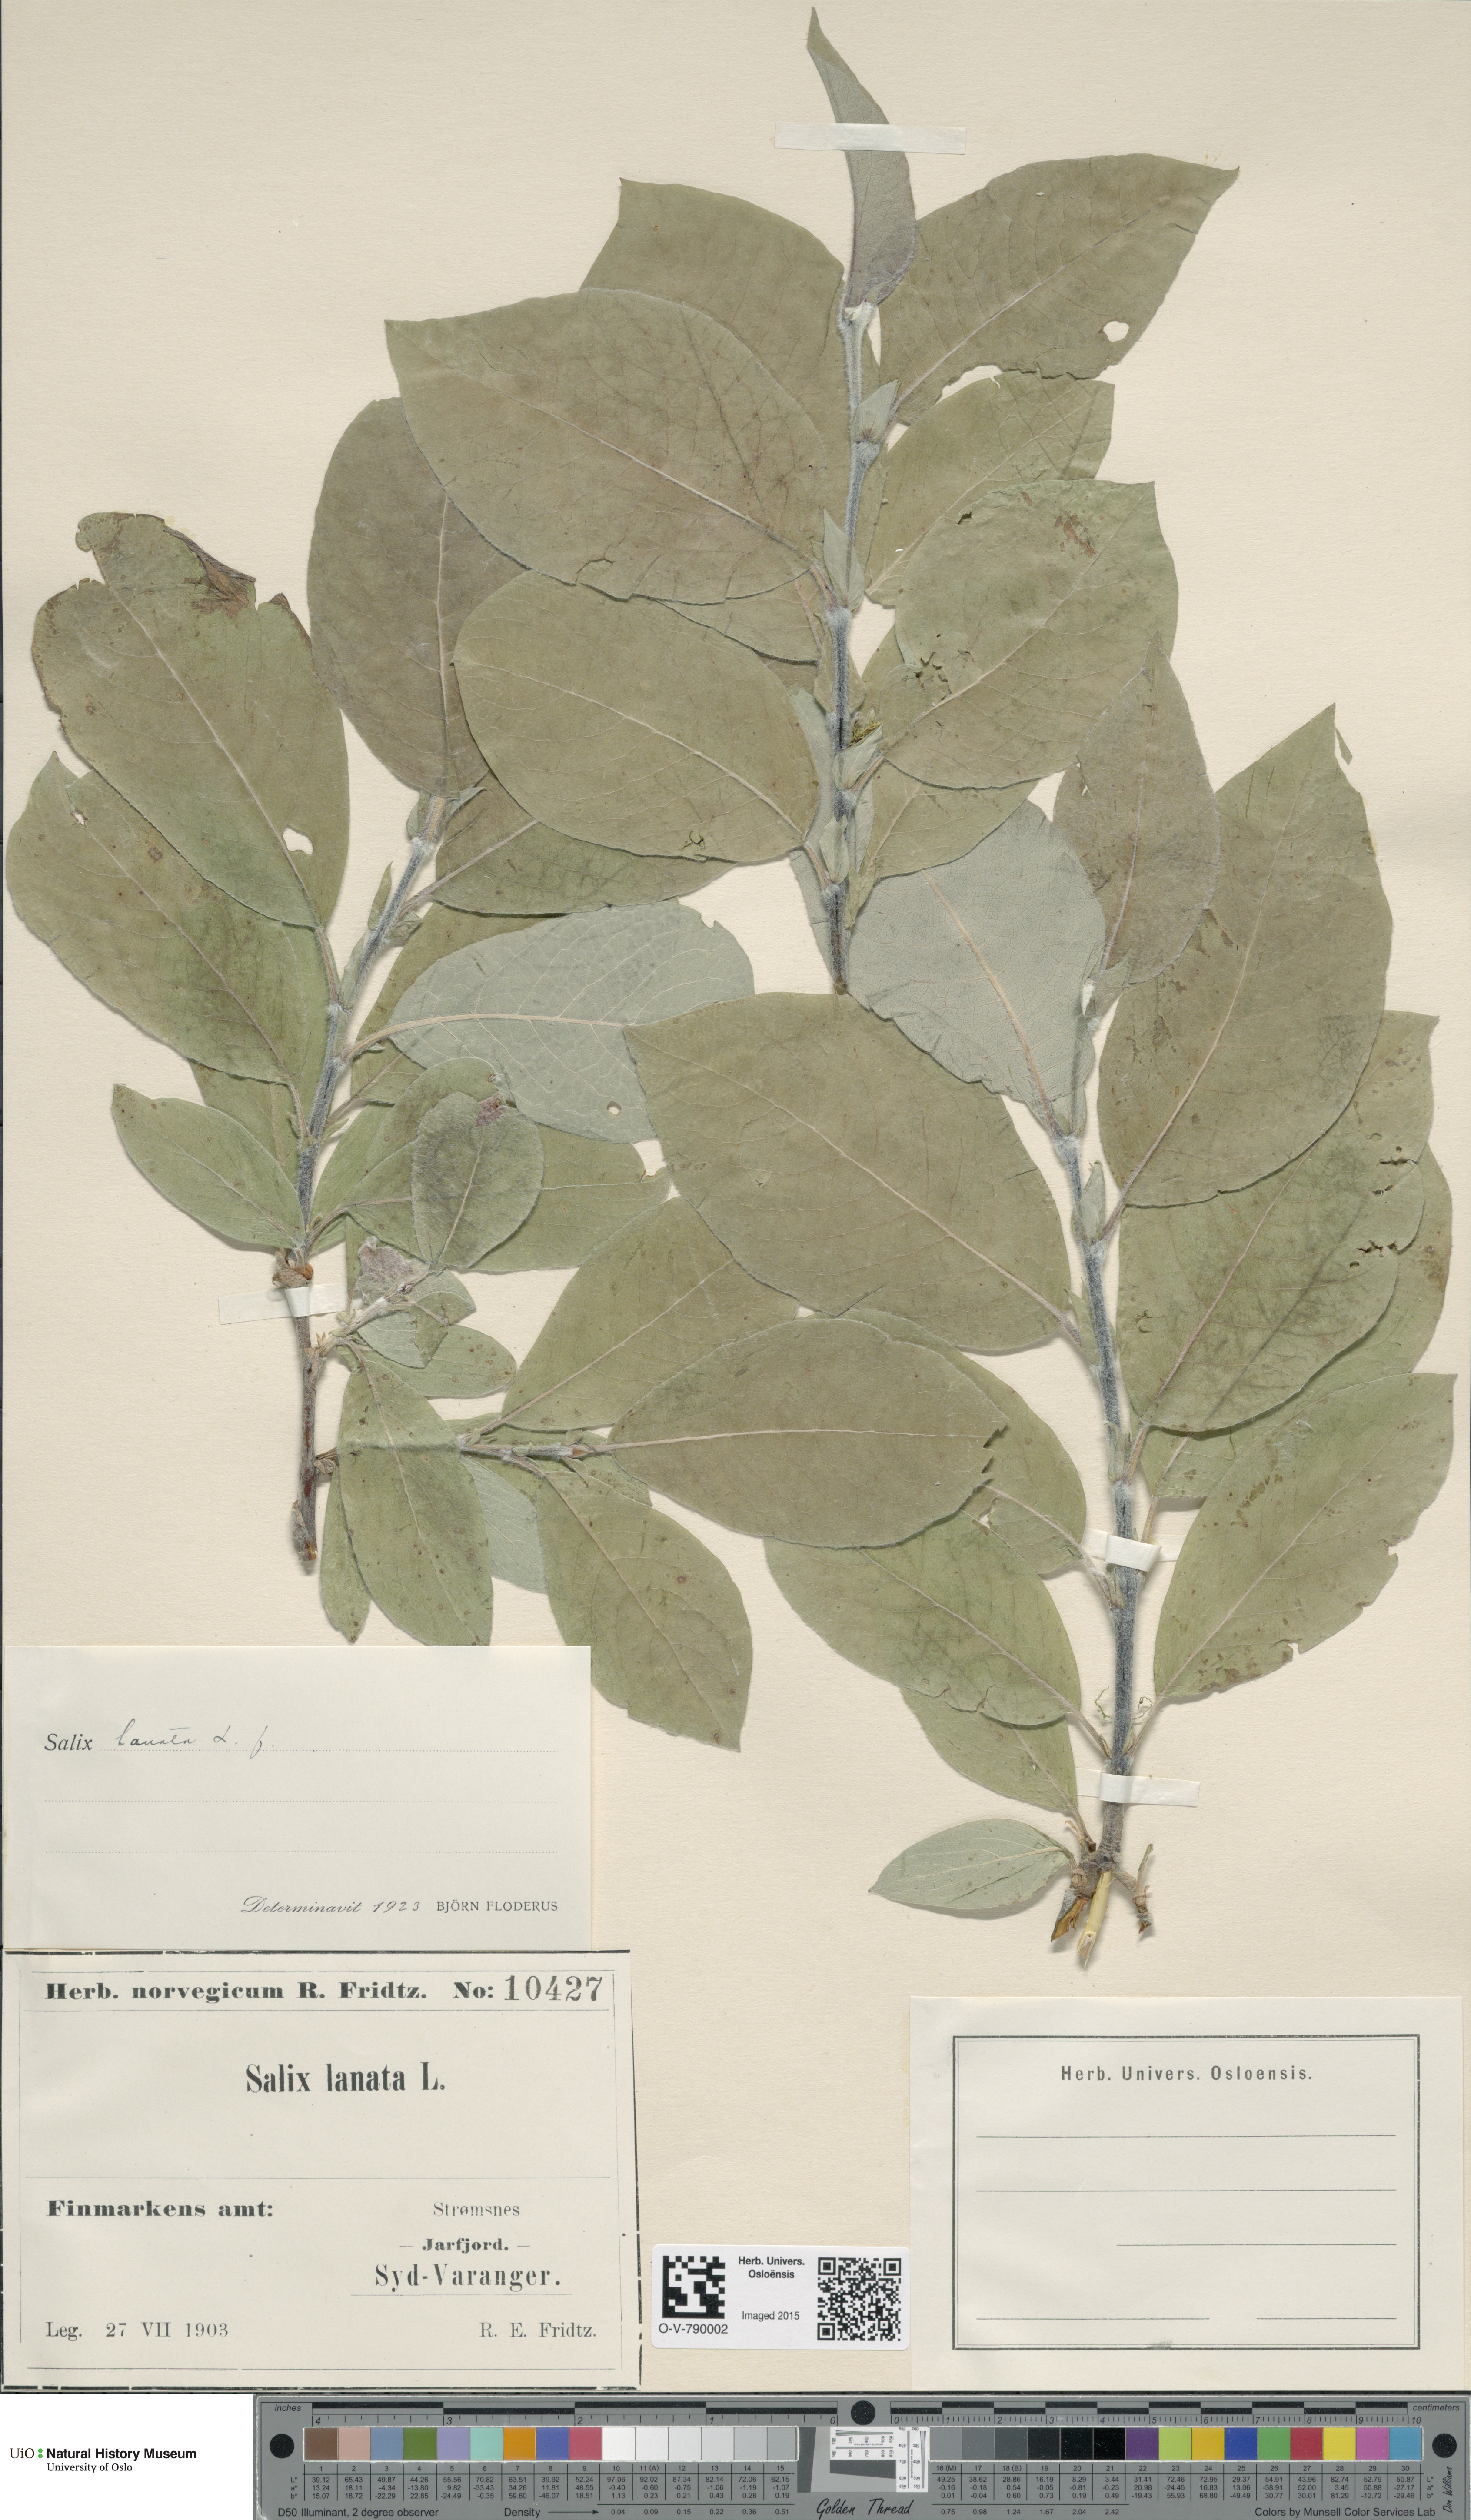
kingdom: Plantae
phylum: Tracheophyta
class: Magnoliopsida
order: Malpighiales
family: Salicaceae
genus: Salix
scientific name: Salix lanata
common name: Woolly willow
